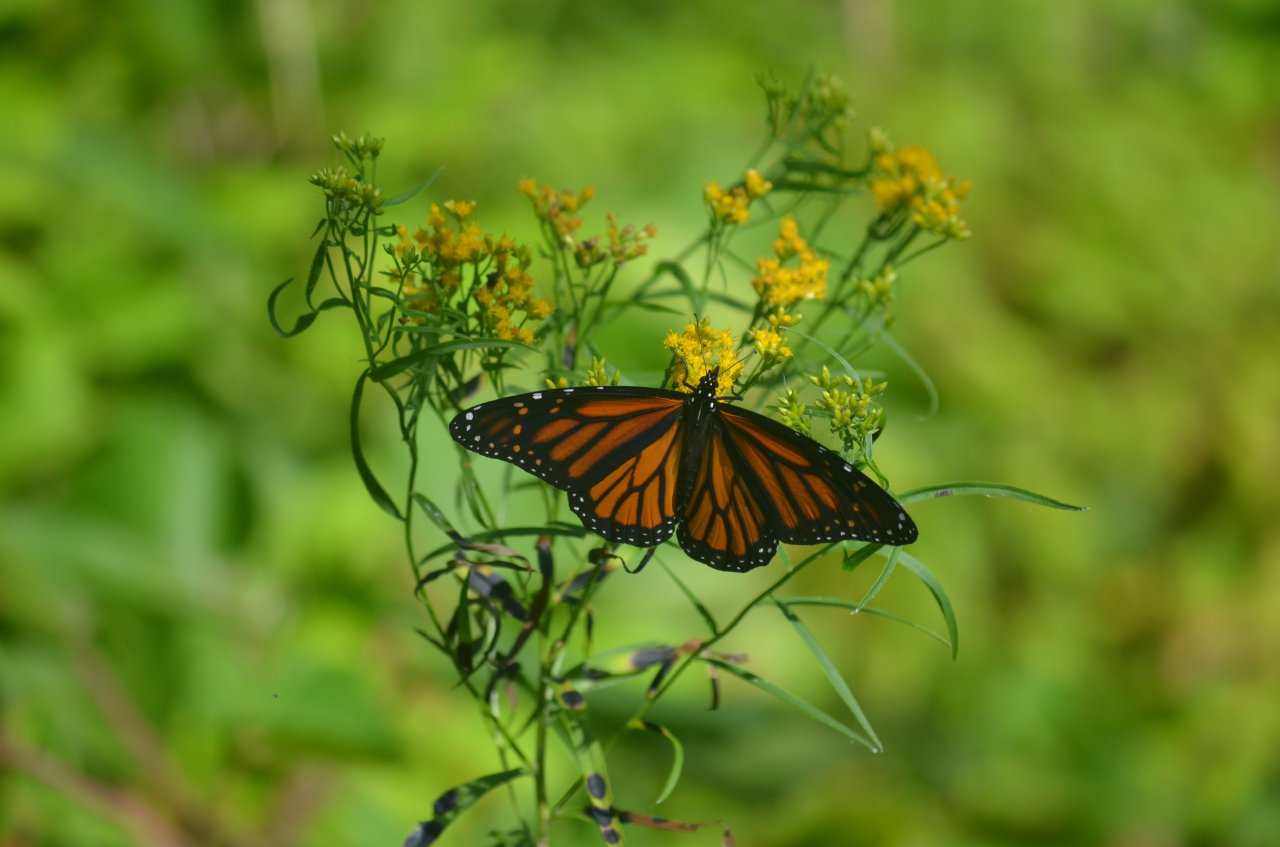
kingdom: Animalia
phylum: Arthropoda
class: Insecta
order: Lepidoptera
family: Nymphalidae
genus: Danaus
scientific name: Danaus plexippus
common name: Monarch
